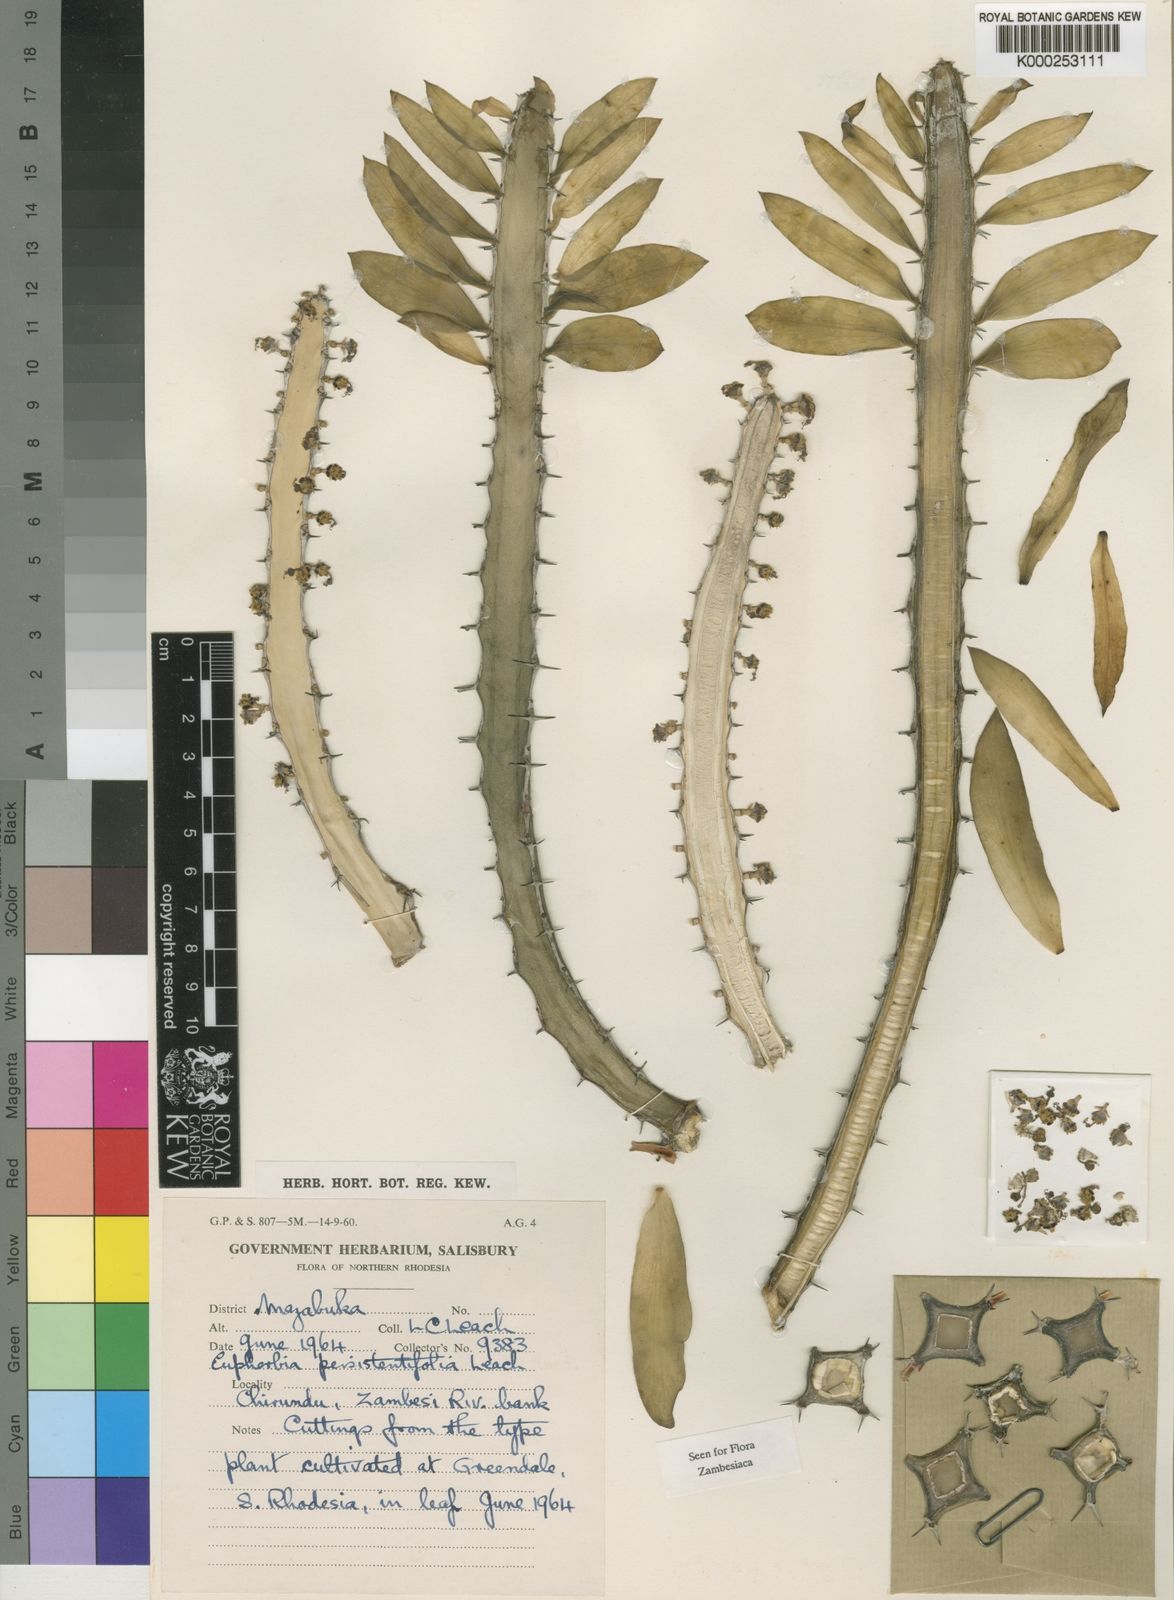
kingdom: Plantae
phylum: Tracheophyta
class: Magnoliopsida
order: Malpighiales
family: Euphorbiaceae
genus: Euphorbia
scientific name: Euphorbia persistentifolia
